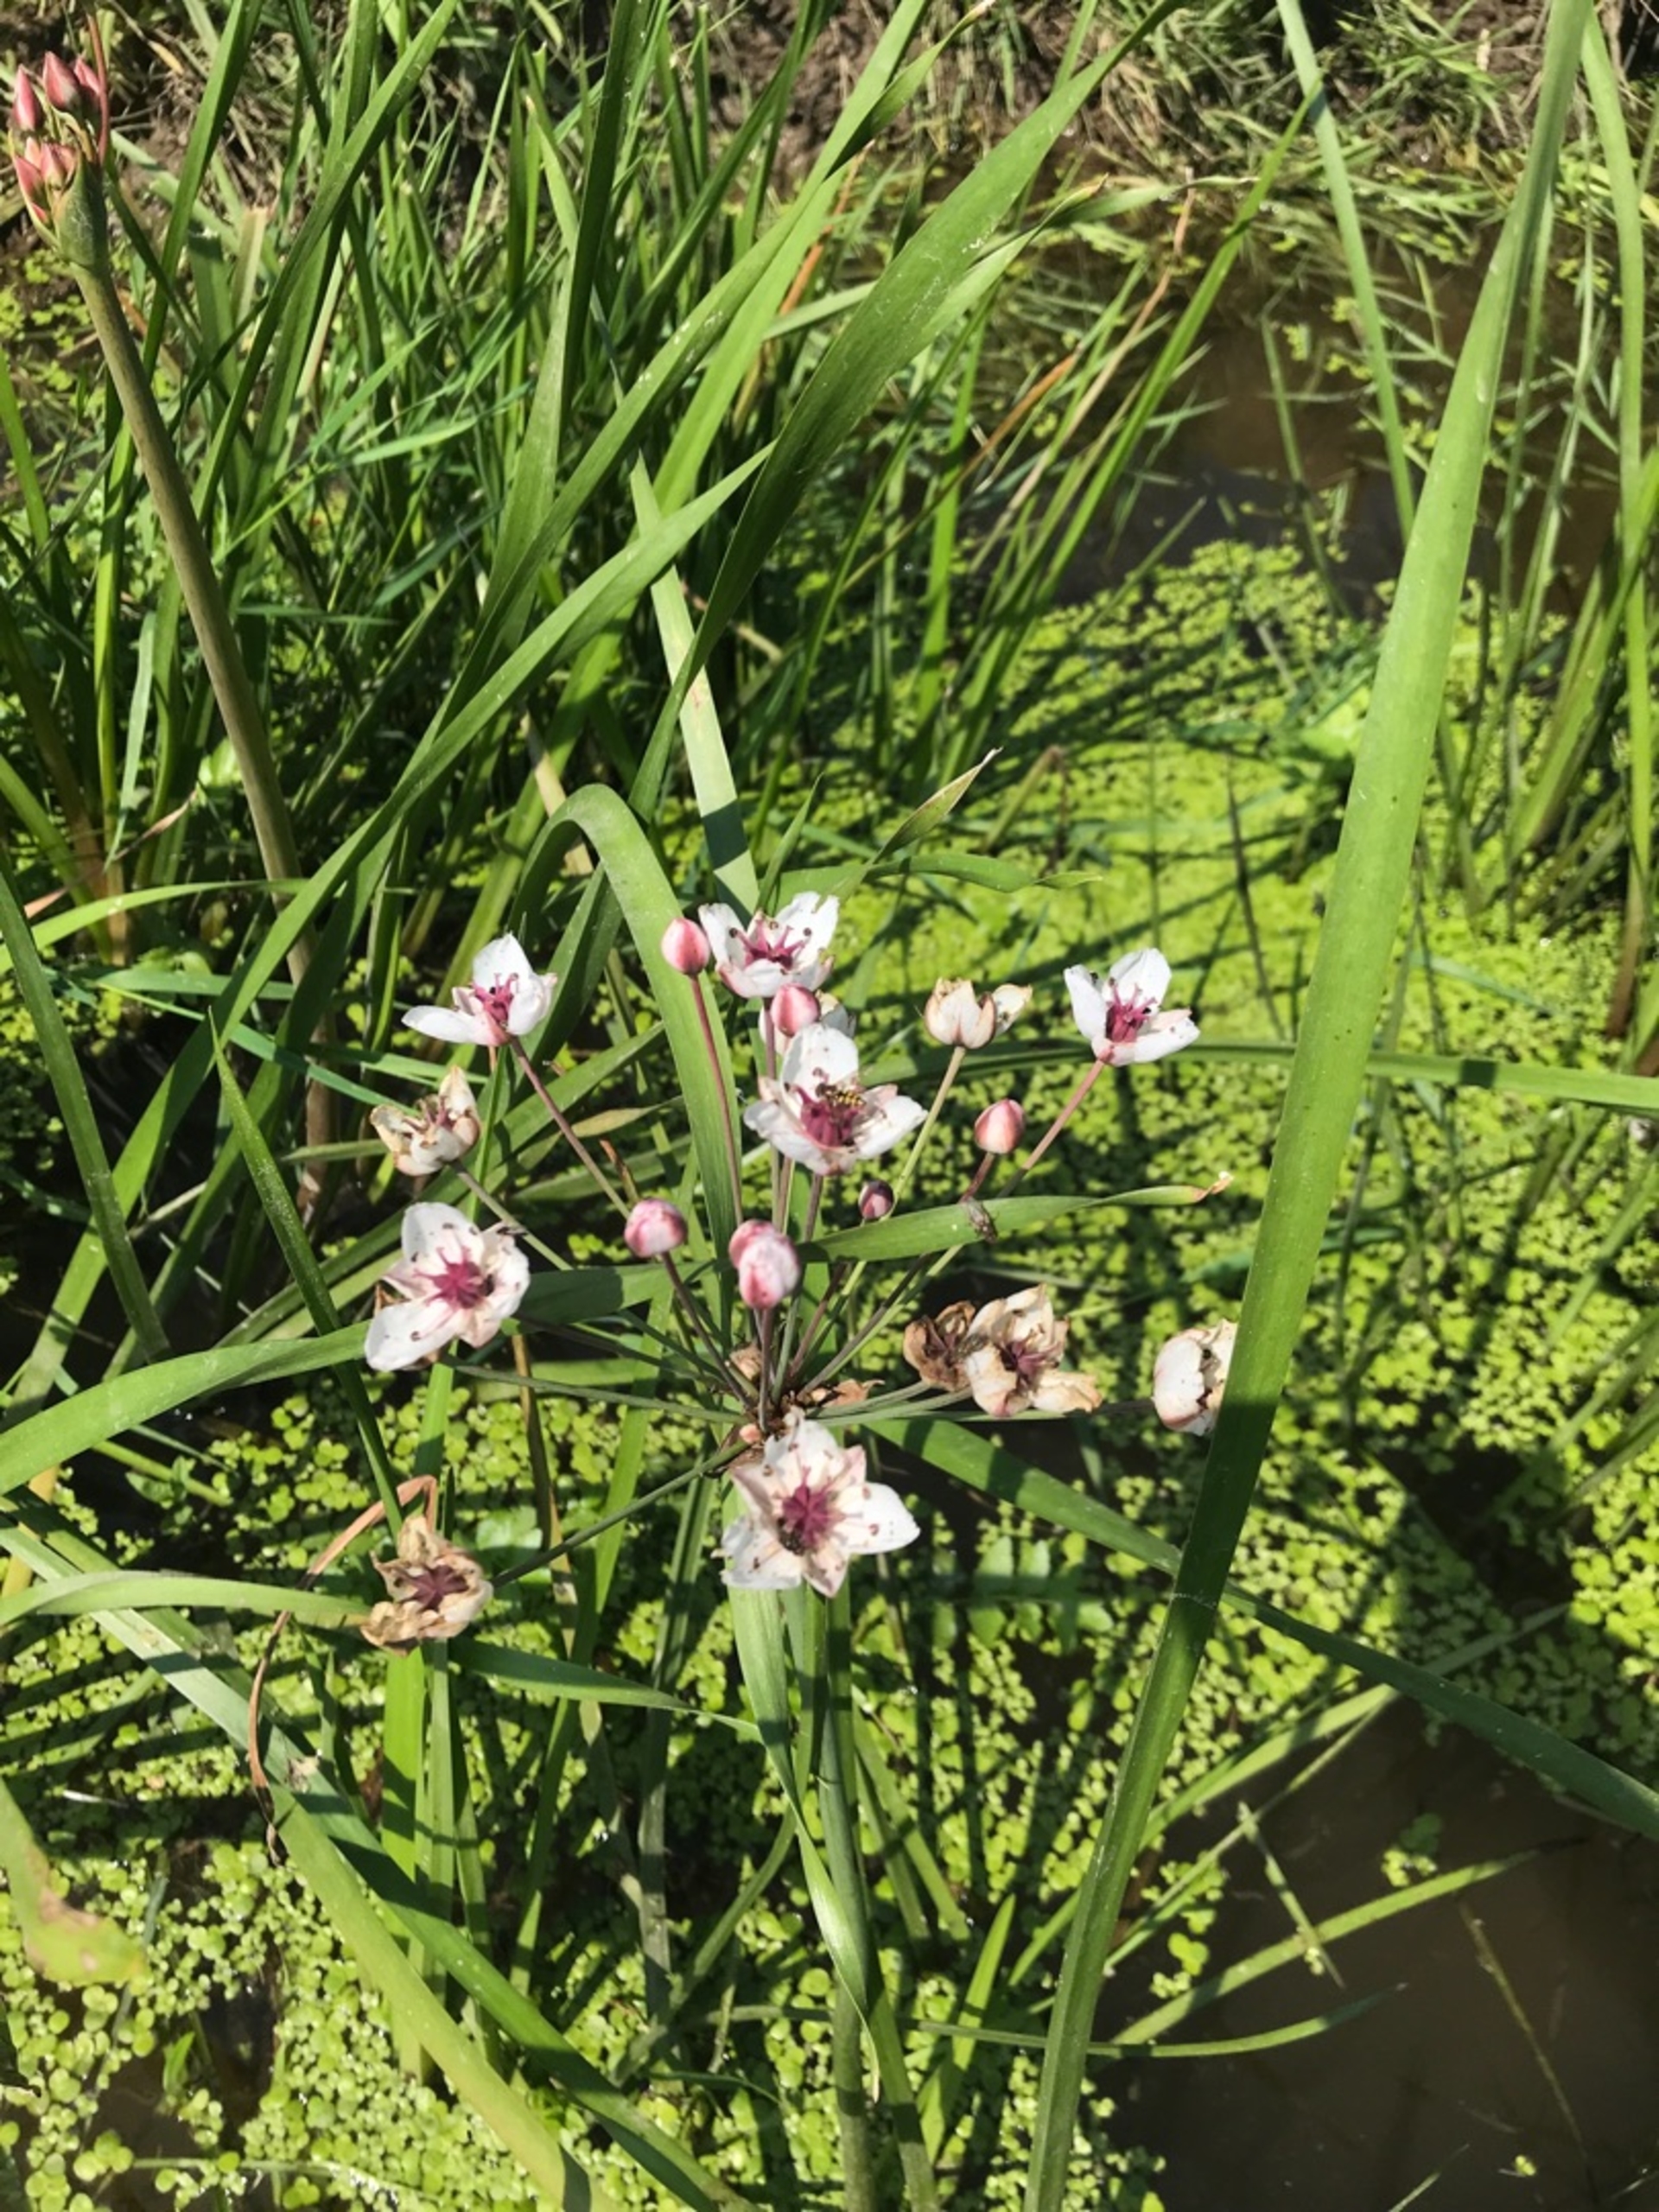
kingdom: Plantae
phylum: Tracheophyta
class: Liliopsida
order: Alismatales
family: Butomaceae
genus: Butomus
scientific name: Butomus umbellatus
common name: Brudelys
